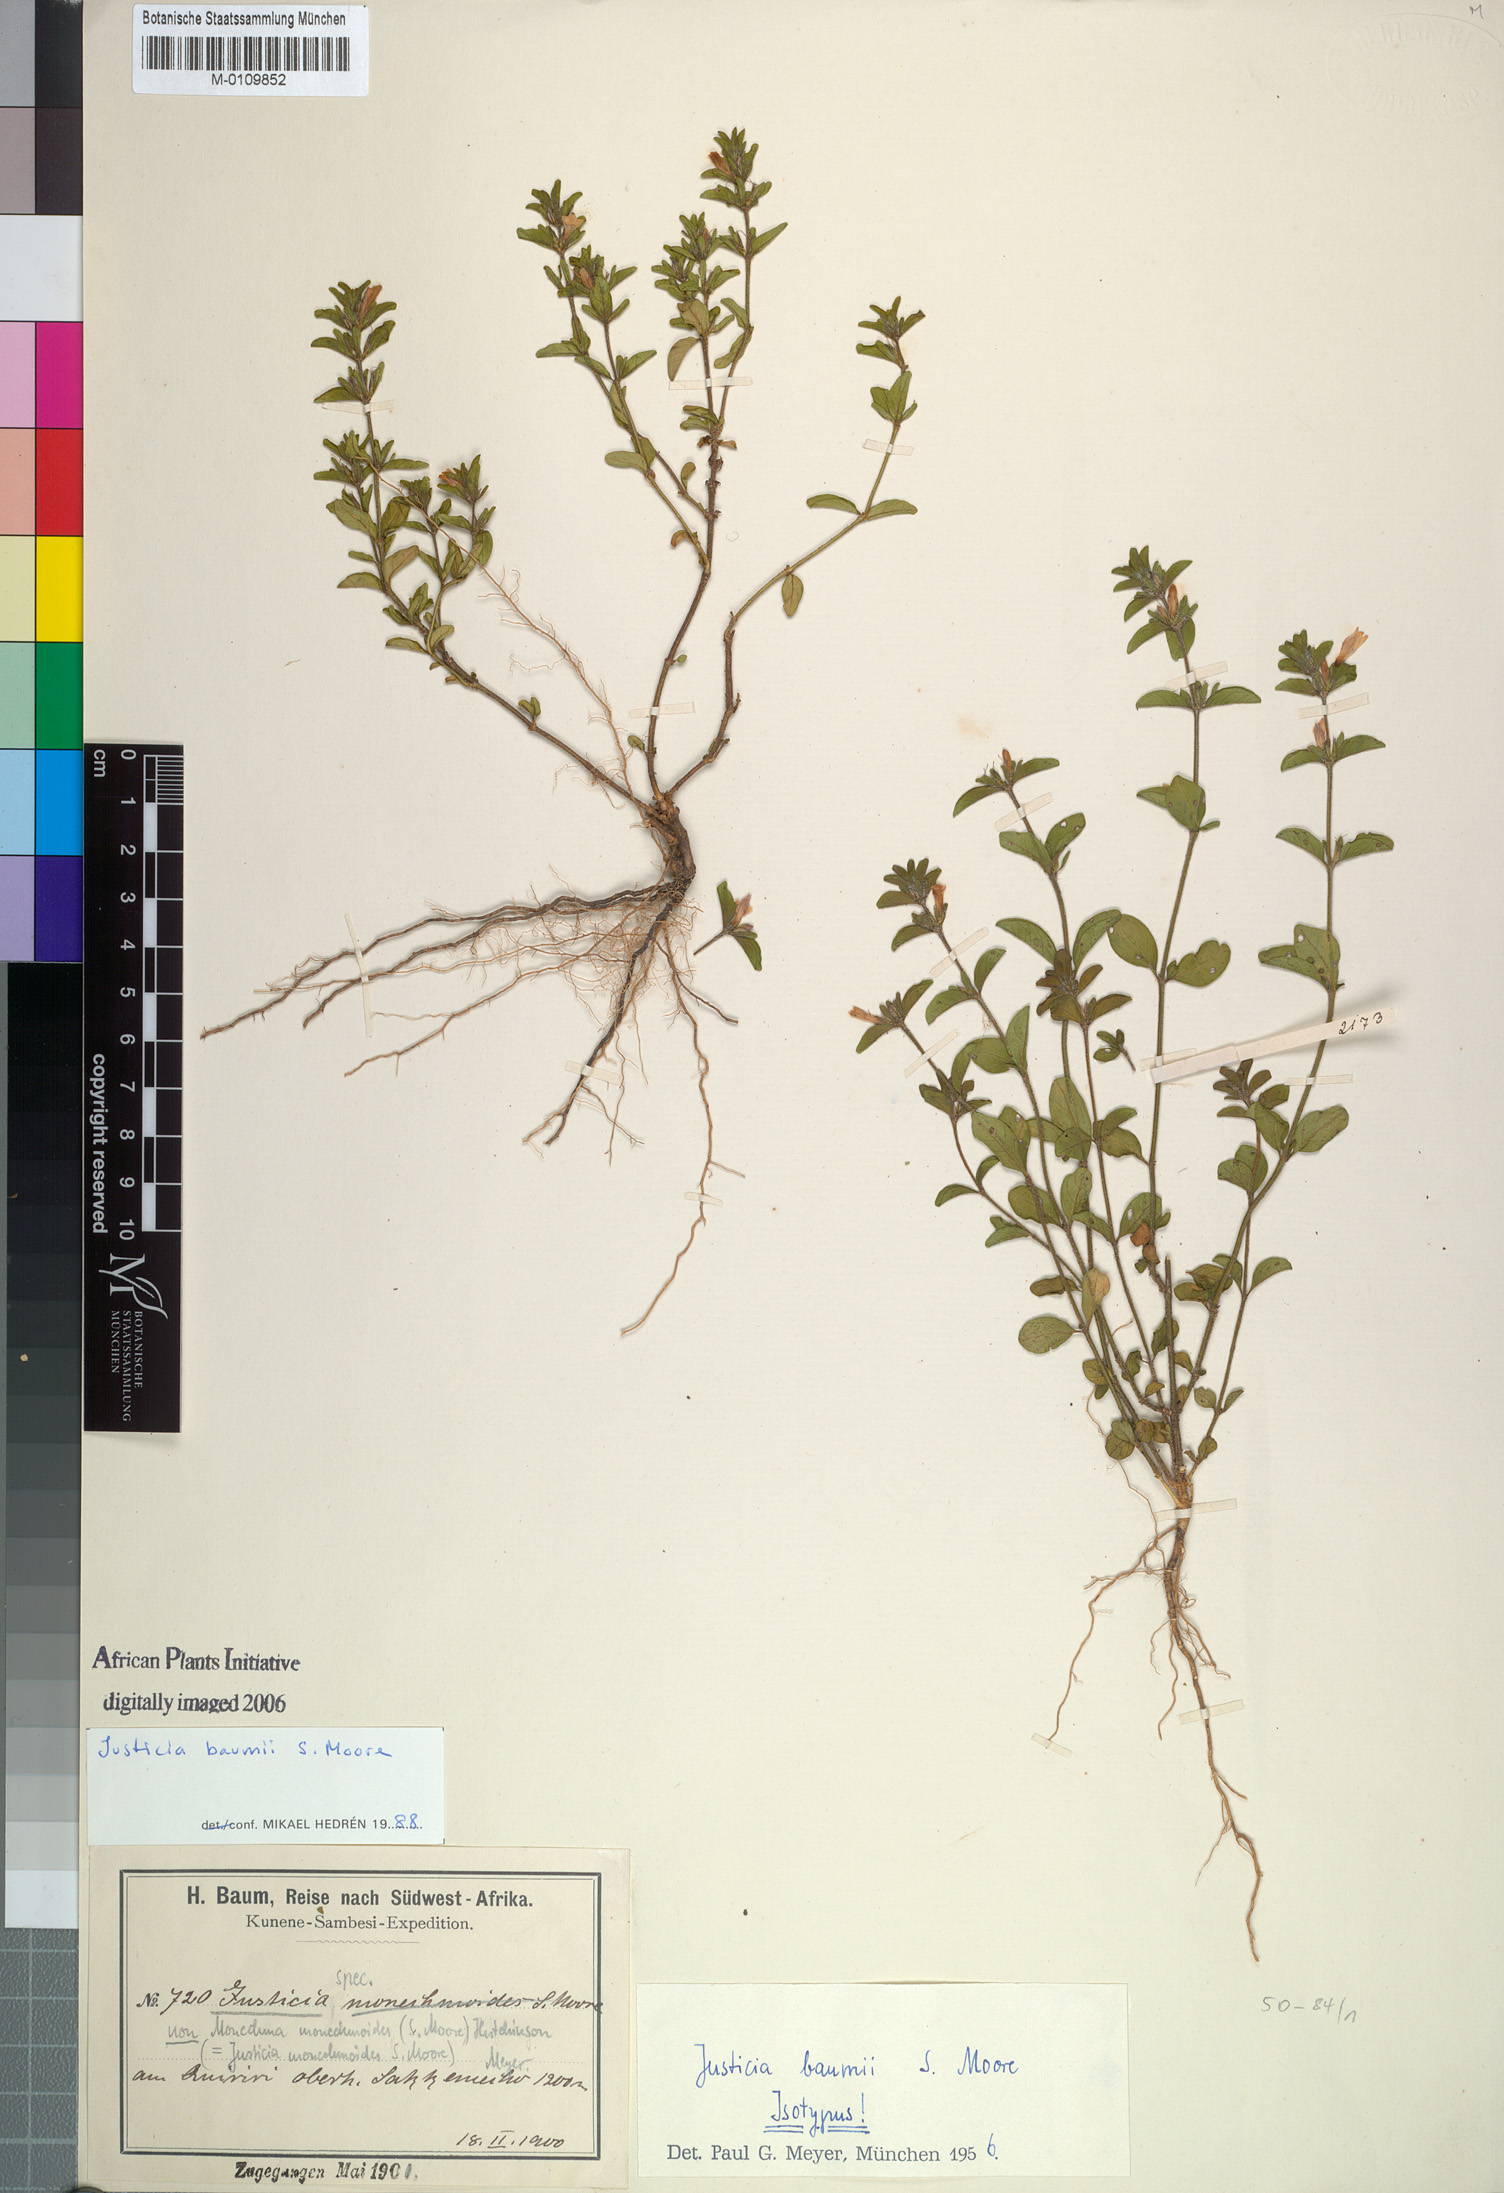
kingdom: Plantae
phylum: Tracheophyta
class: Magnoliopsida
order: Lamiales
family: Acanthaceae
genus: Justicia
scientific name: Justicia baumii
